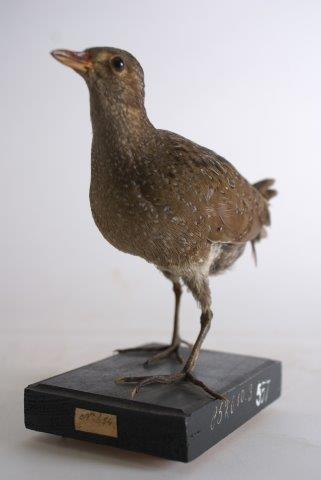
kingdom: Animalia
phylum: Chordata
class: Aves
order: Gruiformes
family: Rallidae
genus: Porzana
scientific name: Porzana porzana
